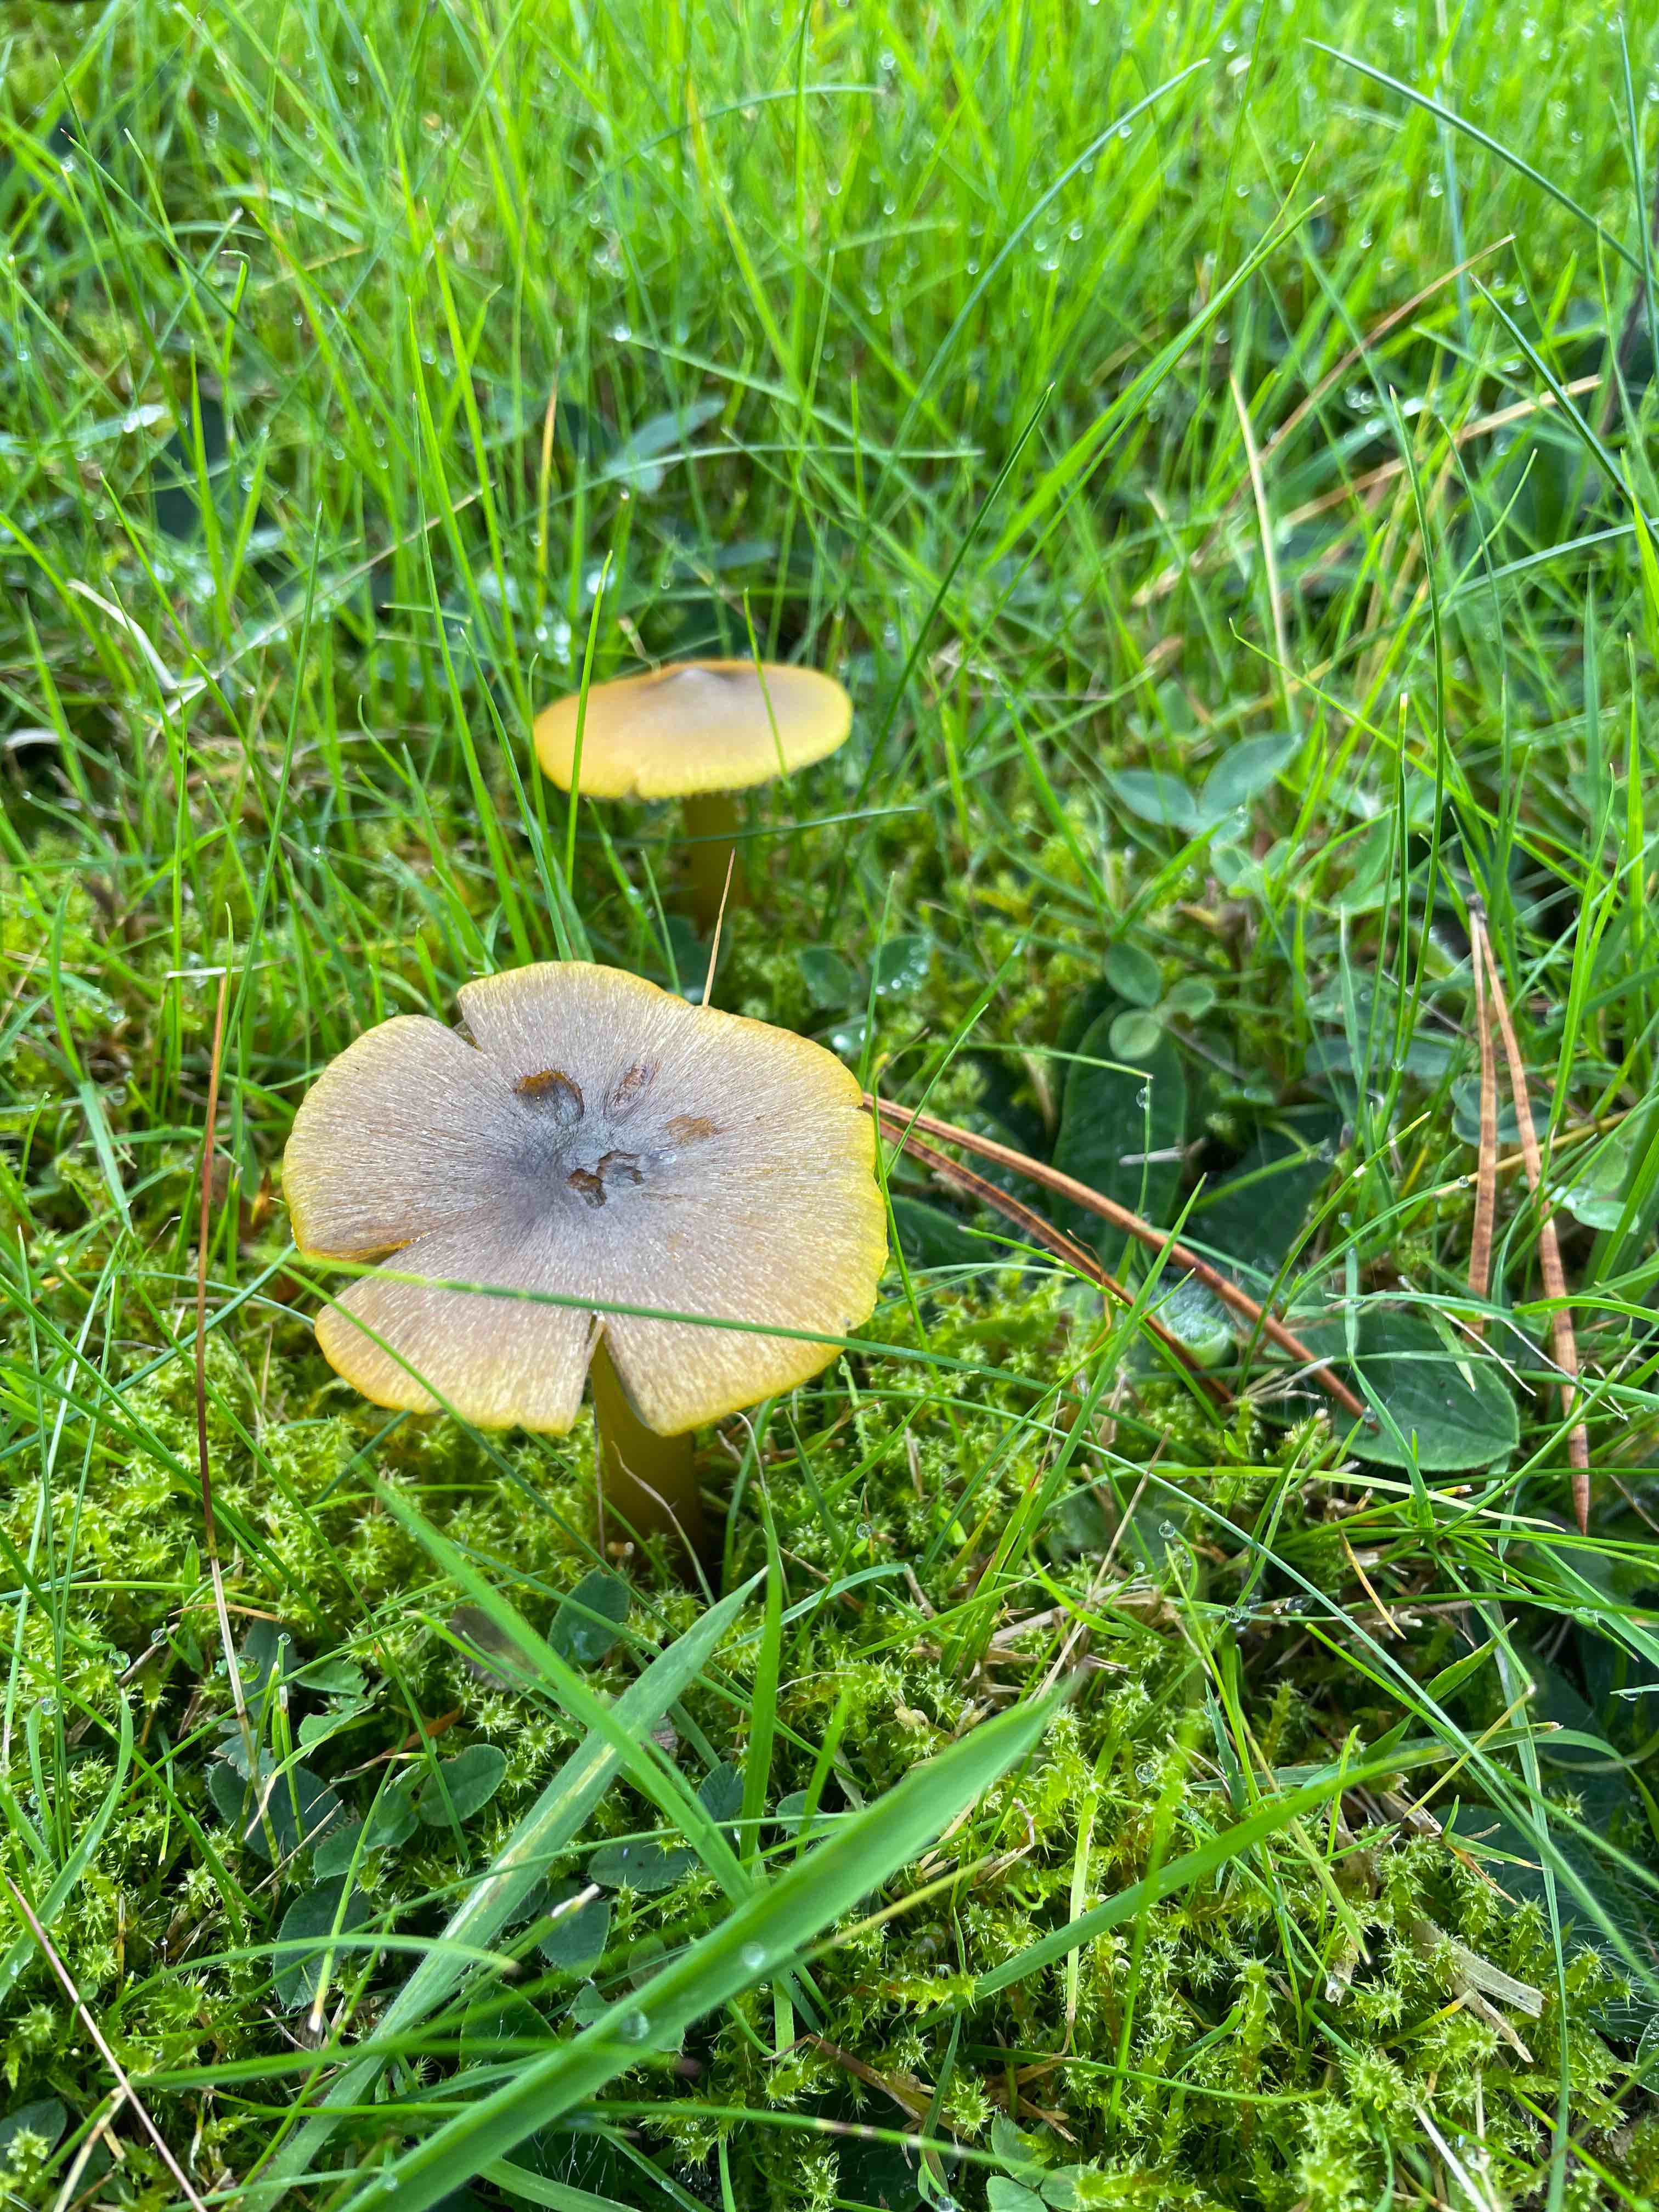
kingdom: Fungi
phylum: Basidiomycota
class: Agaricomycetes
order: Agaricales
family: Hygrophoraceae
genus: Hygrocybe
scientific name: Hygrocybe conica
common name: kegle-vokshat
